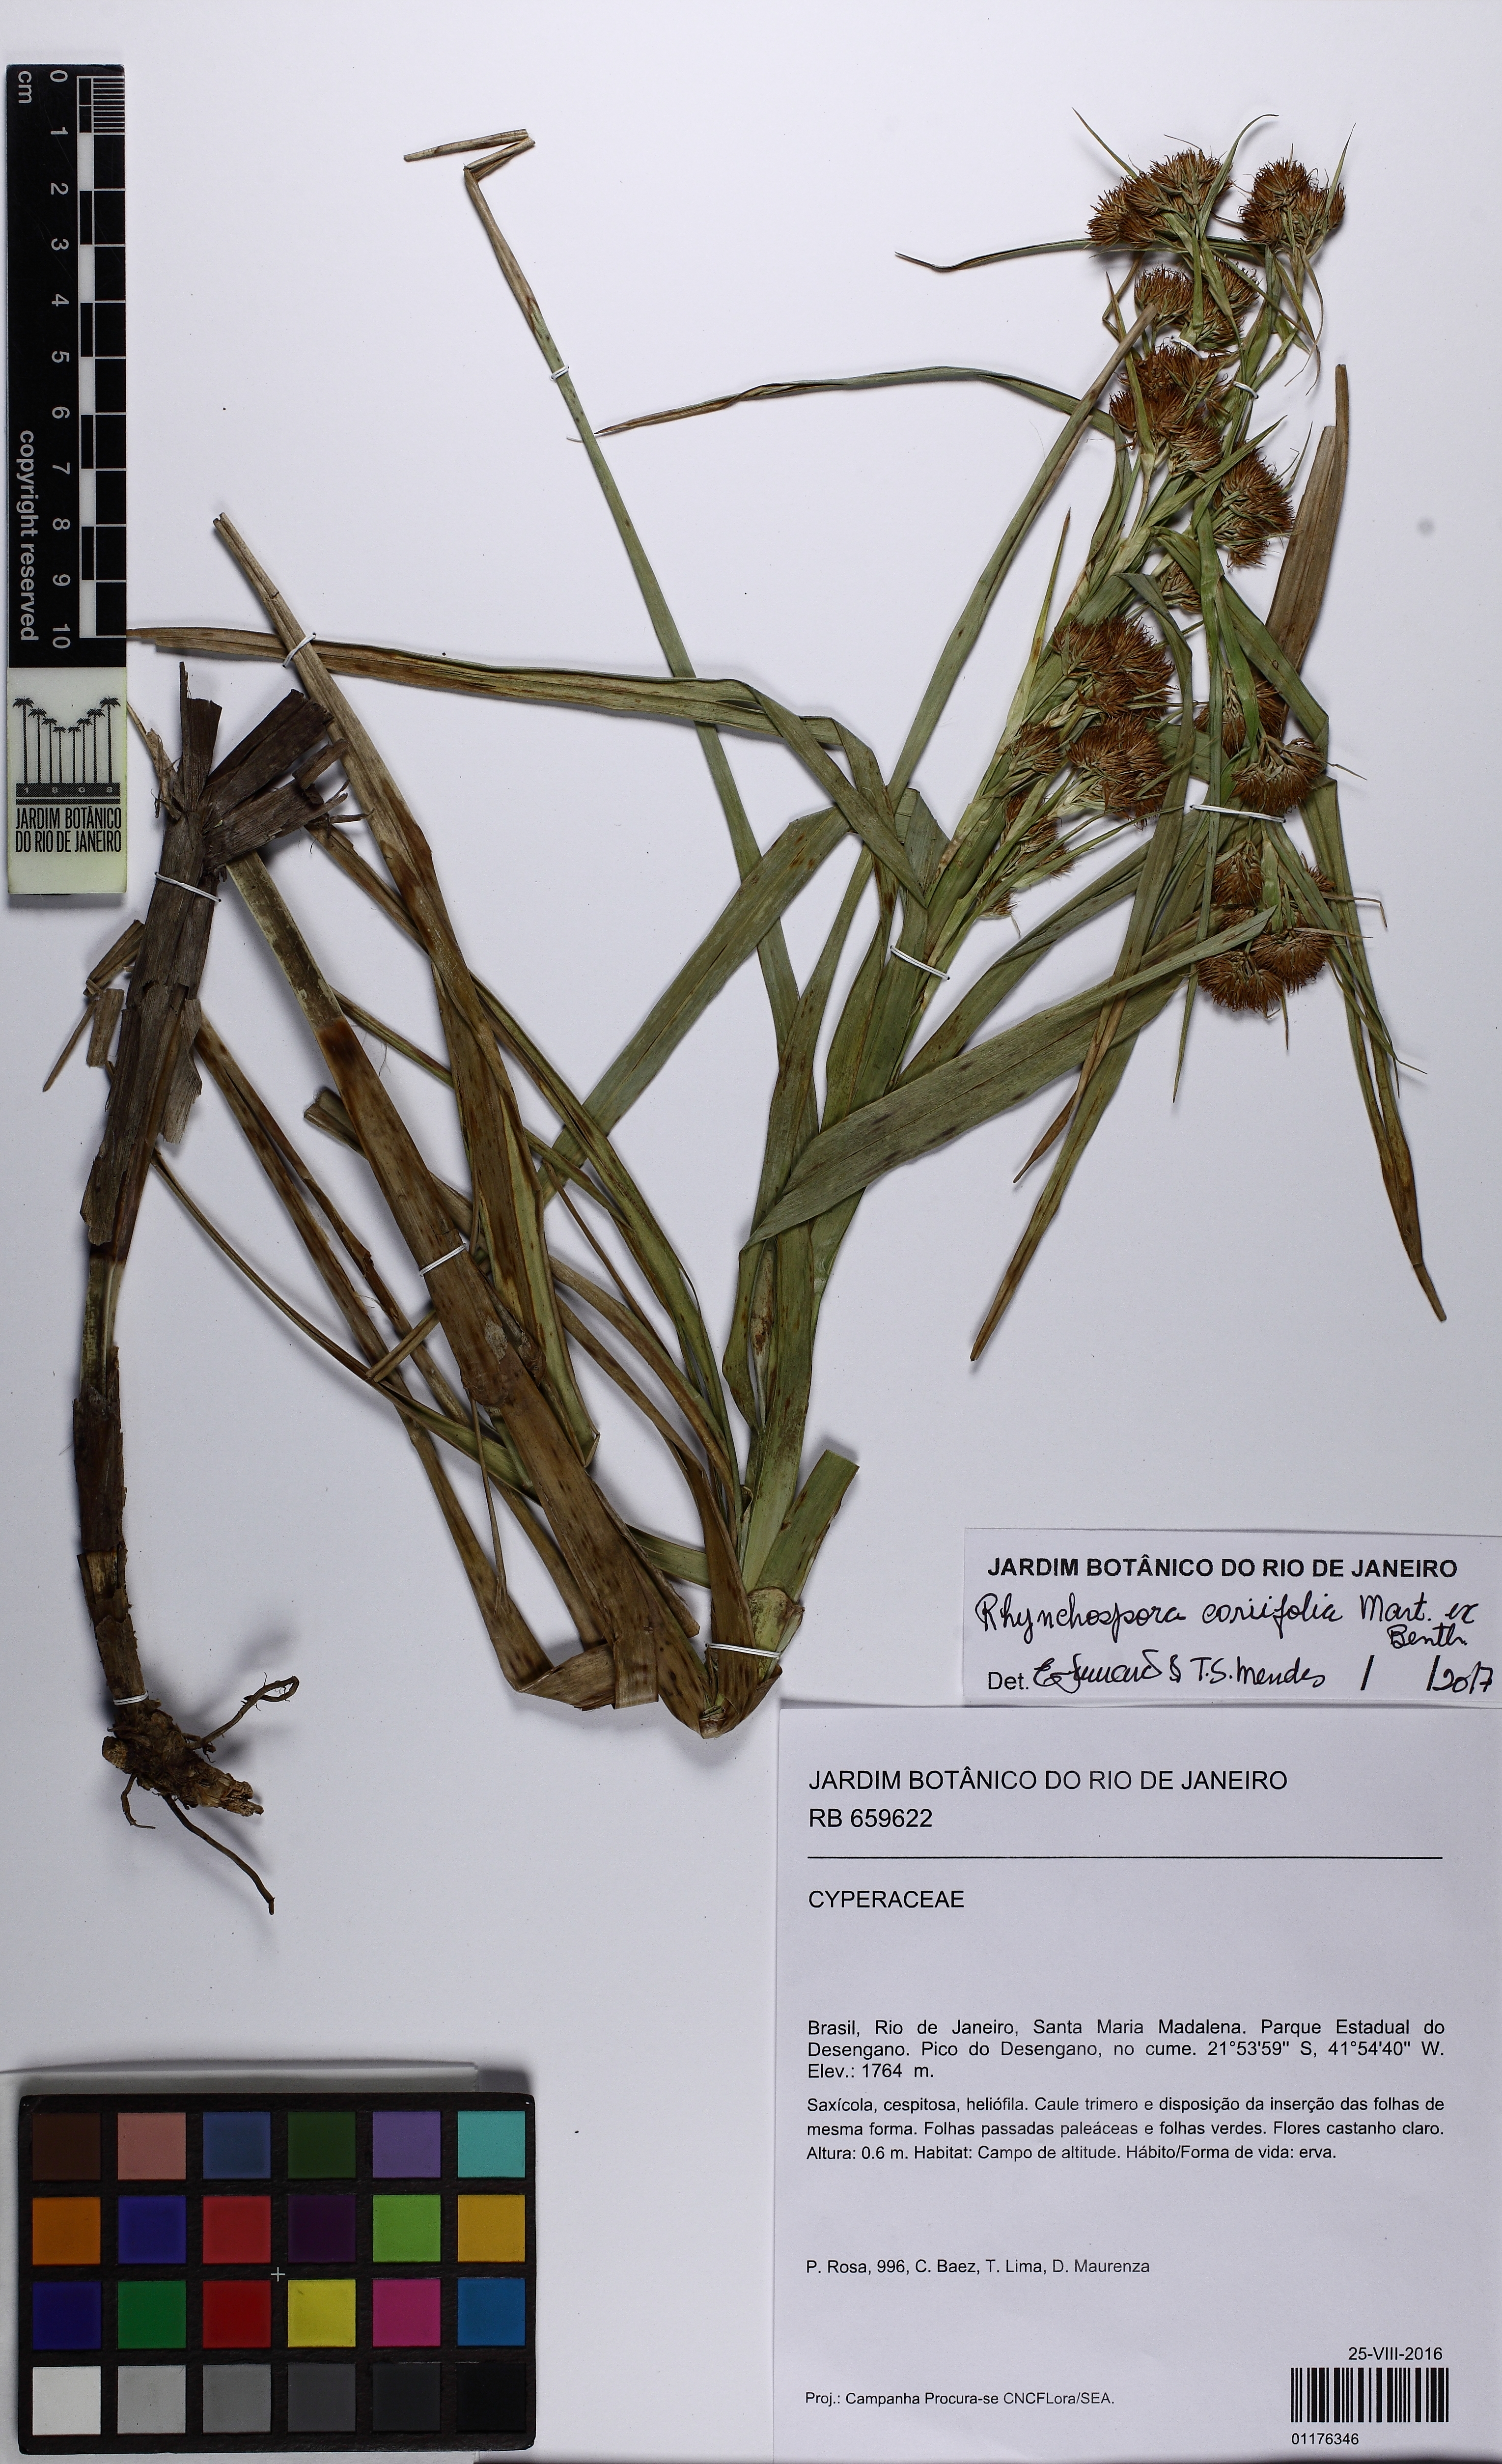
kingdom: Plantae
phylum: Tracheophyta
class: Liliopsida
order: Poales
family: Cyperaceae
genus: Rhynchospora
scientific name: Rhynchospora coriifolia
